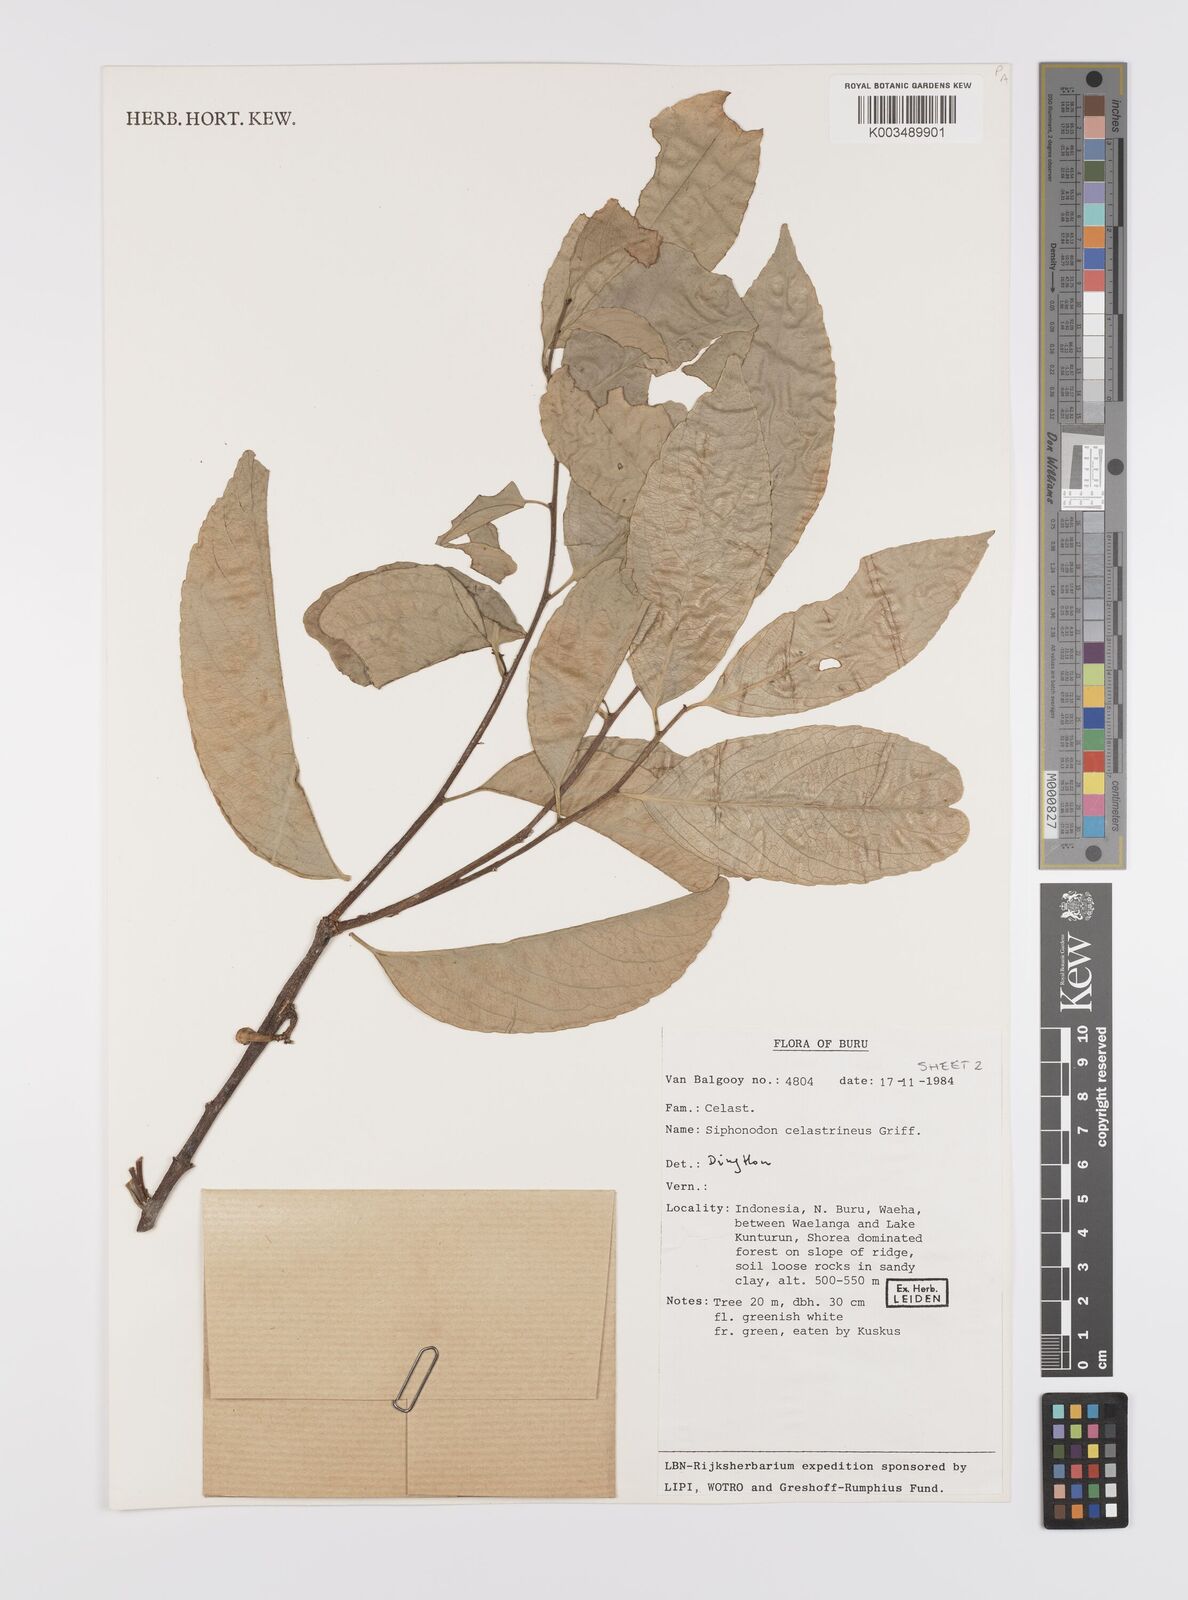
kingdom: Plantae
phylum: Tracheophyta
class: Magnoliopsida
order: Celastrales
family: Celastraceae
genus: Siphonodon
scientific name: Siphonodon celastrineus
